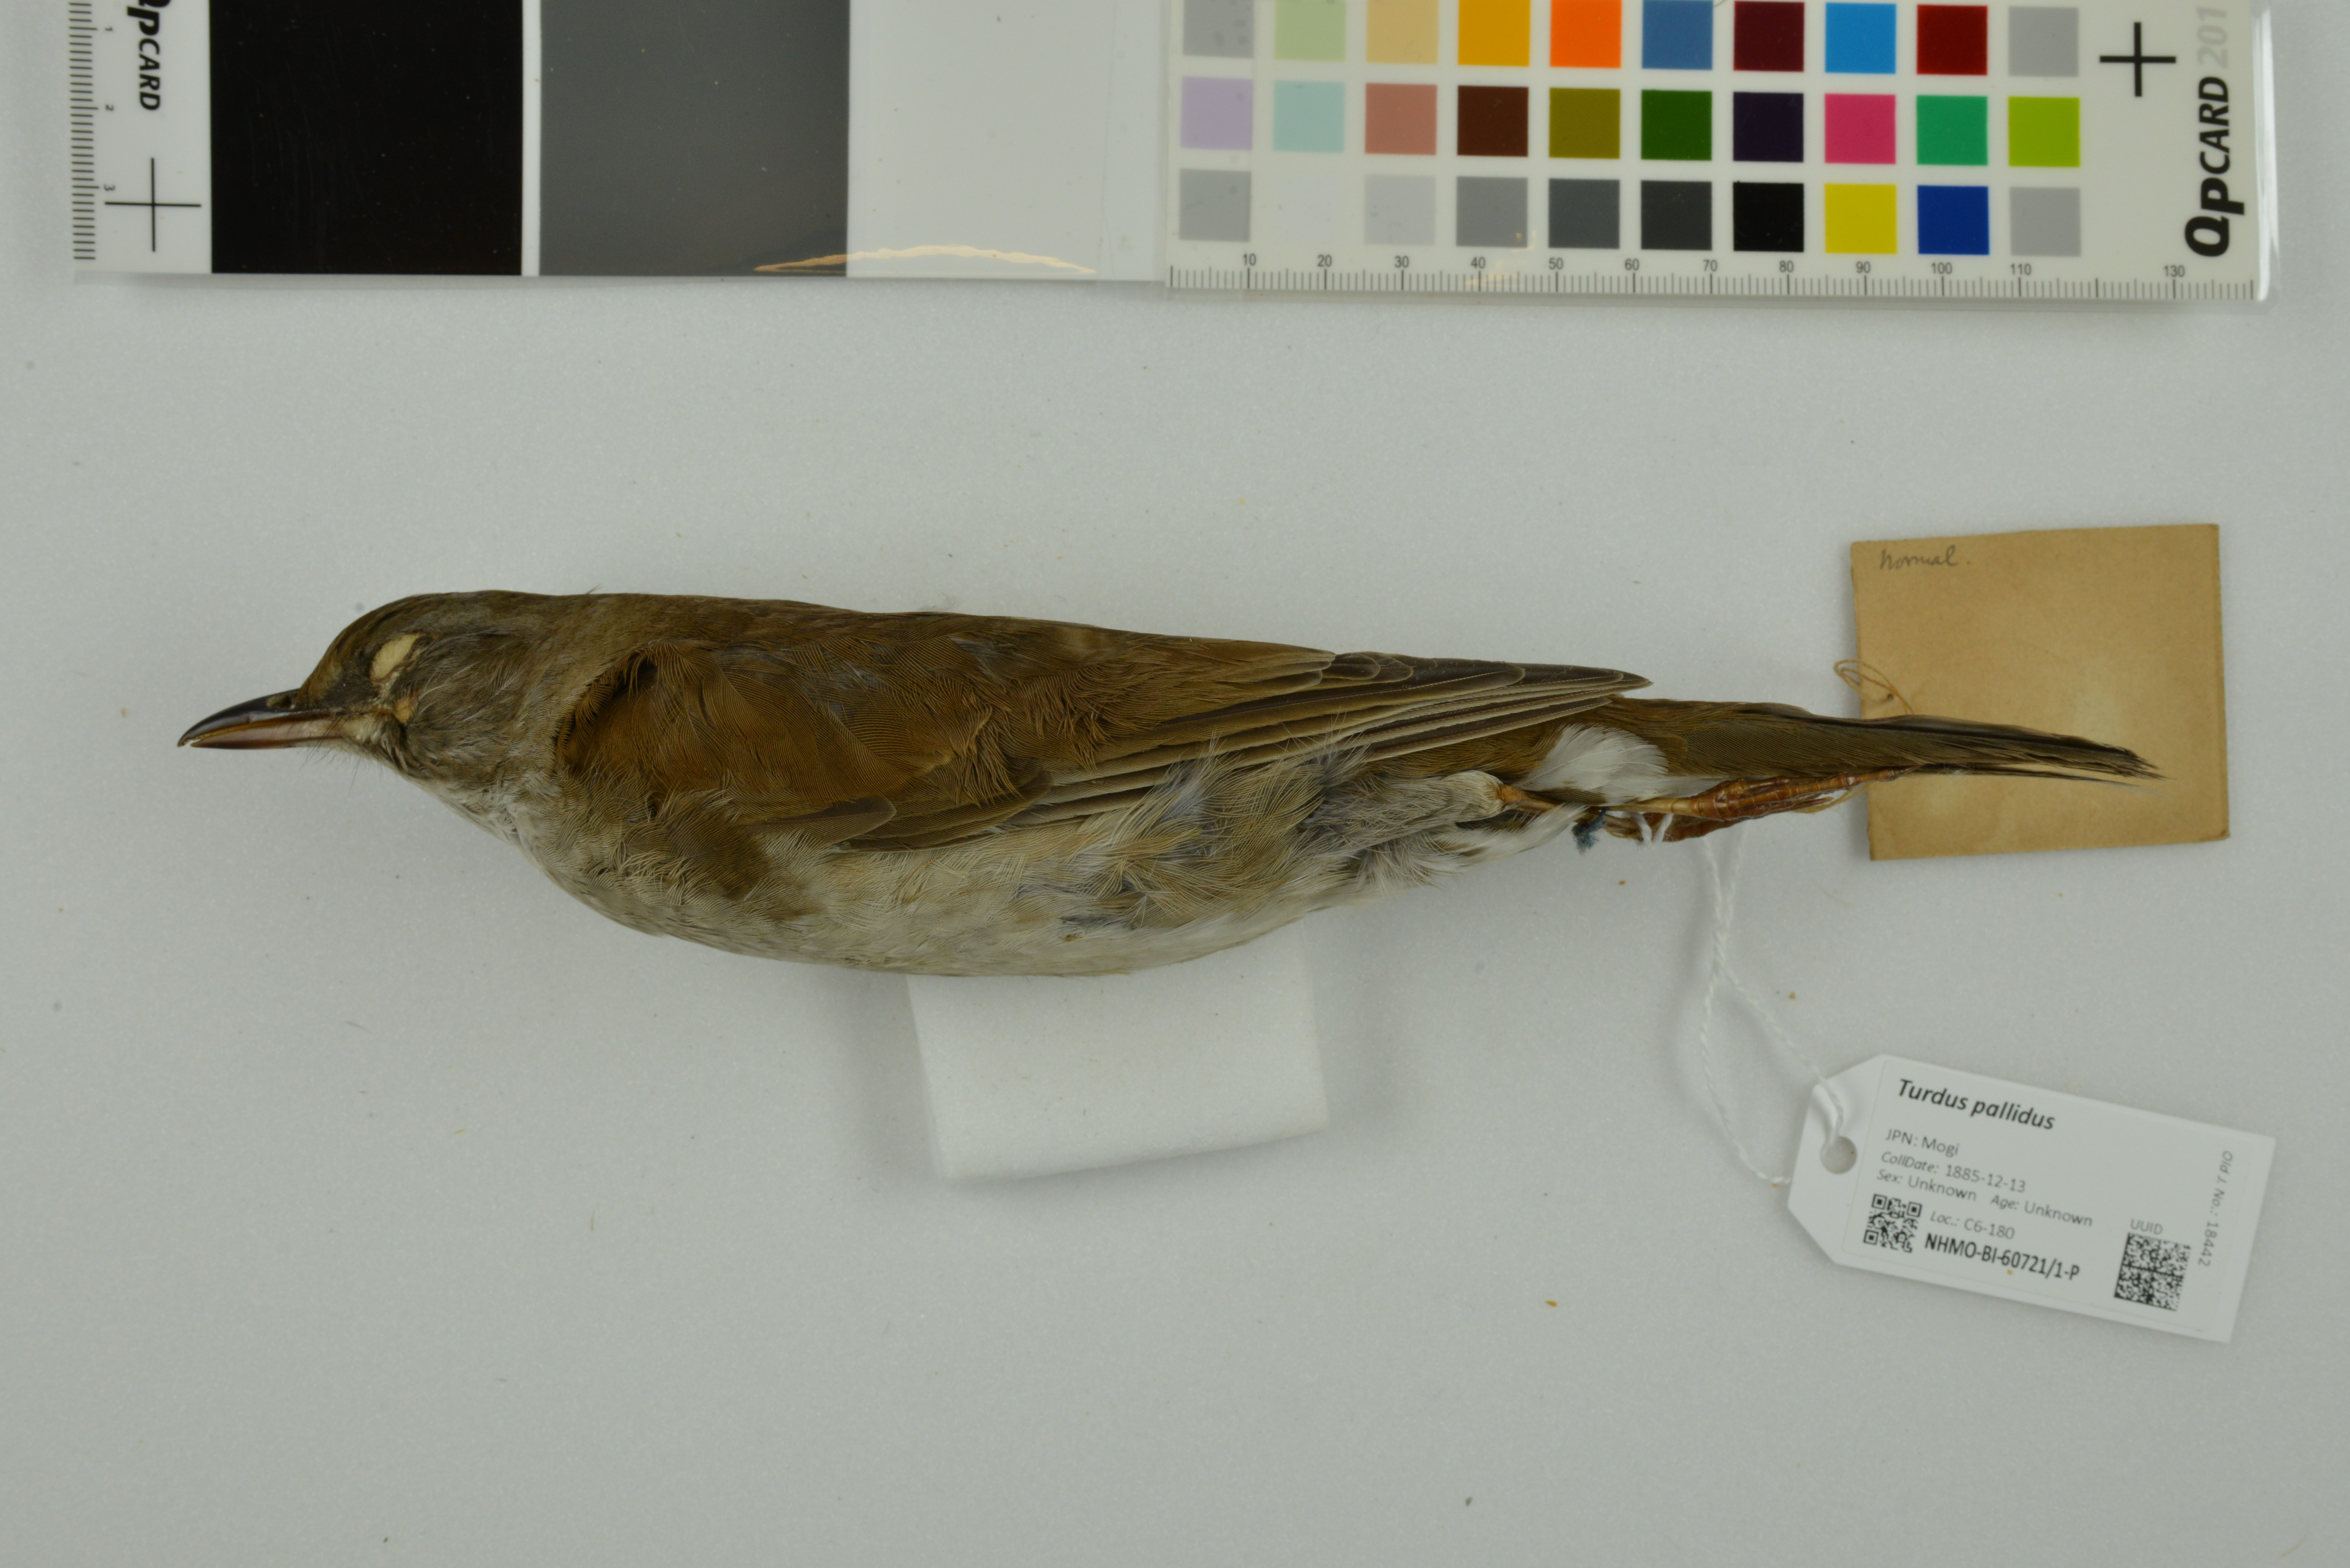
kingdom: Animalia
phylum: Chordata
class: Aves
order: Passeriformes
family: Turdidae
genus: Turdus
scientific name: Turdus pallidus
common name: Pale thrush
